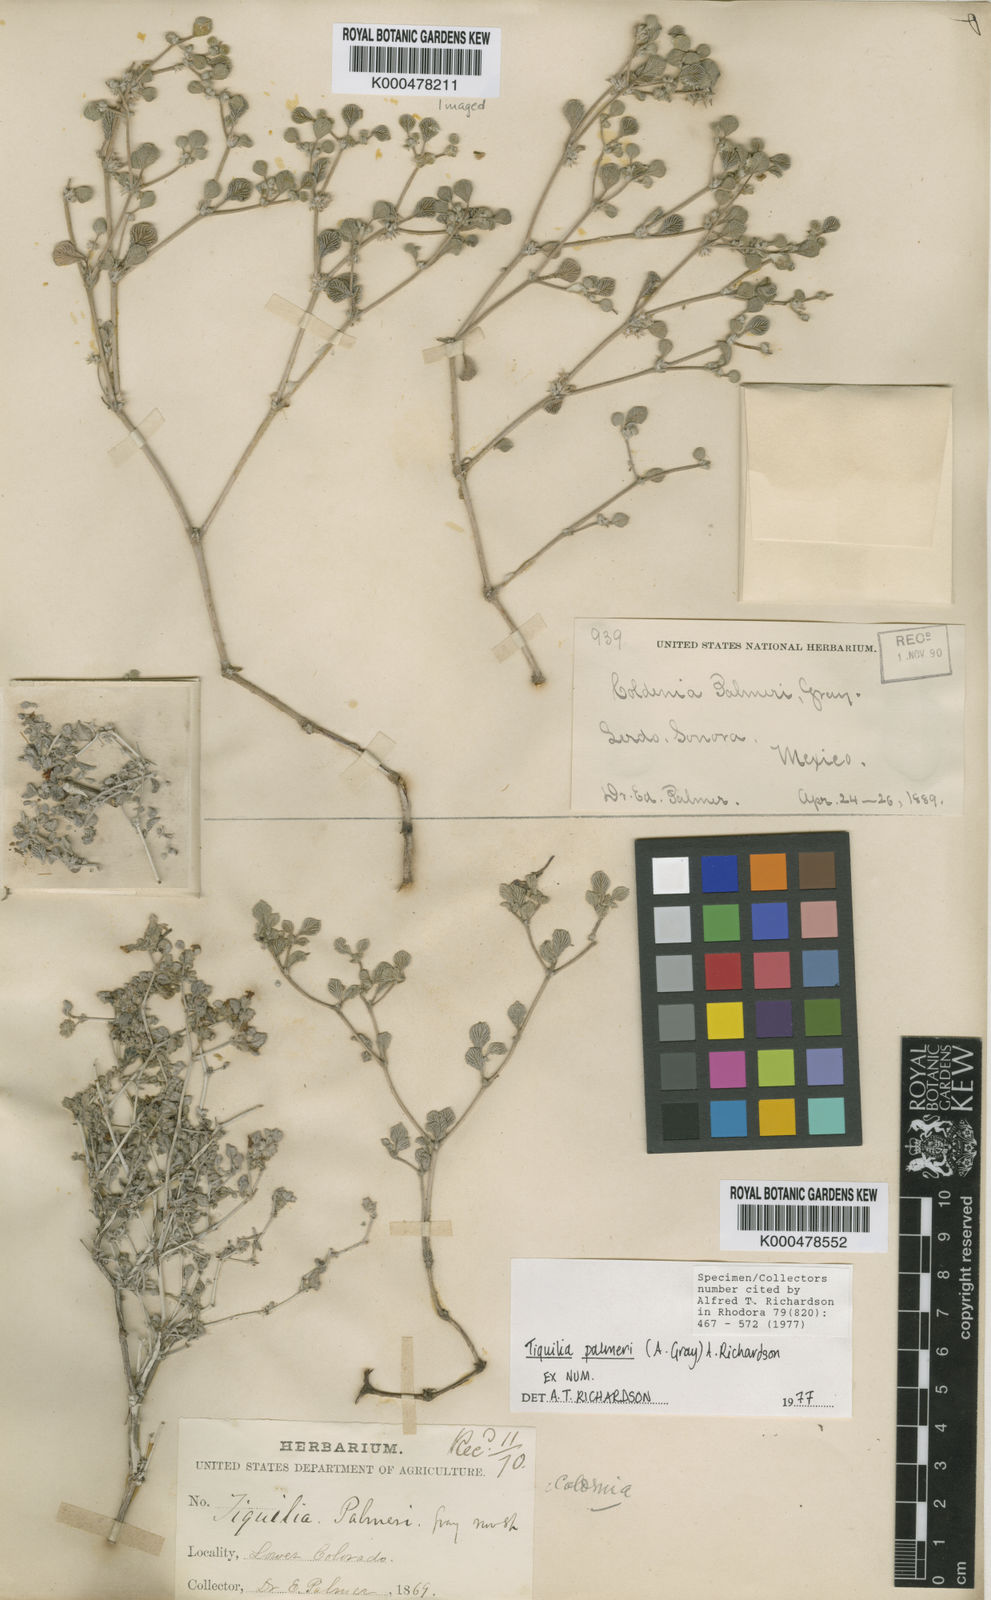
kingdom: Plantae
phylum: Tracheophyta
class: Magnoliopsida
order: Boraginales
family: Ehretiaceae
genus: Tiquilia
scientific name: Tiquilia palmeri
